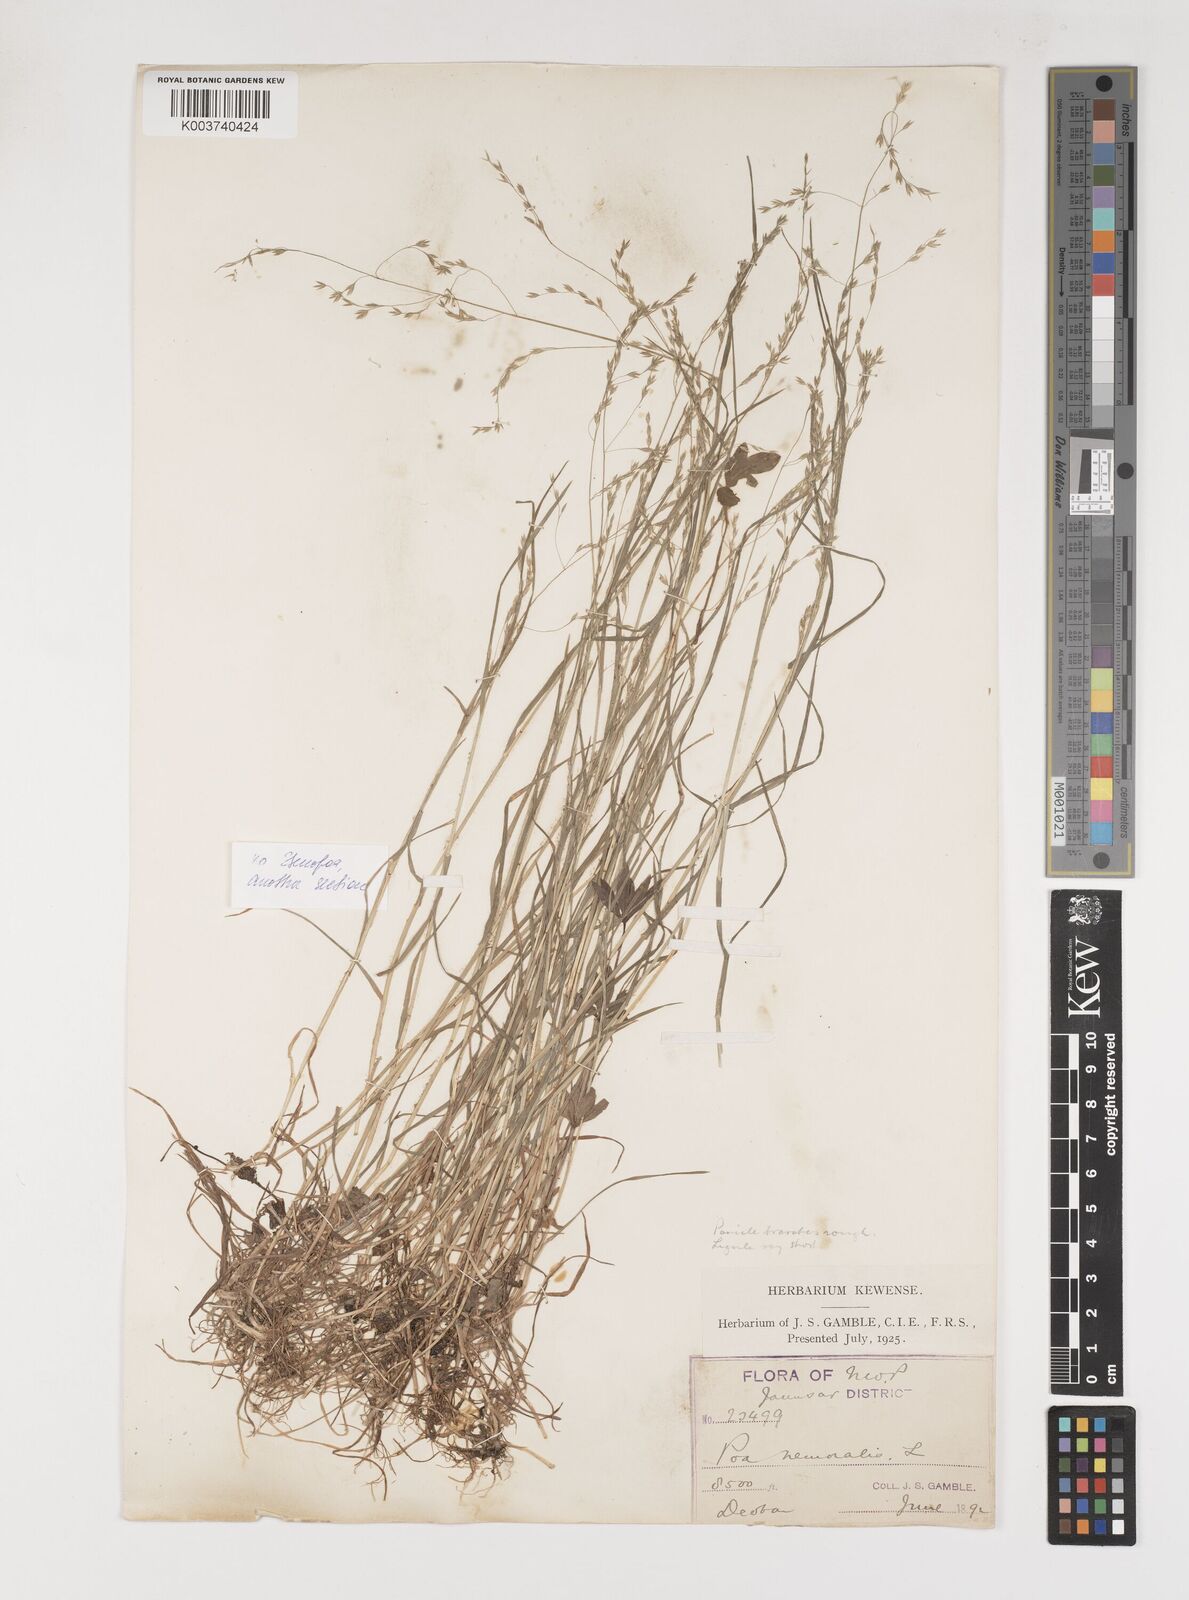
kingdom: Plantae
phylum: Tracheophyta
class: Liliopsida
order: Poales
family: Poaceae
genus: Poa
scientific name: Poa nemoralis
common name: Wood bluegrass
